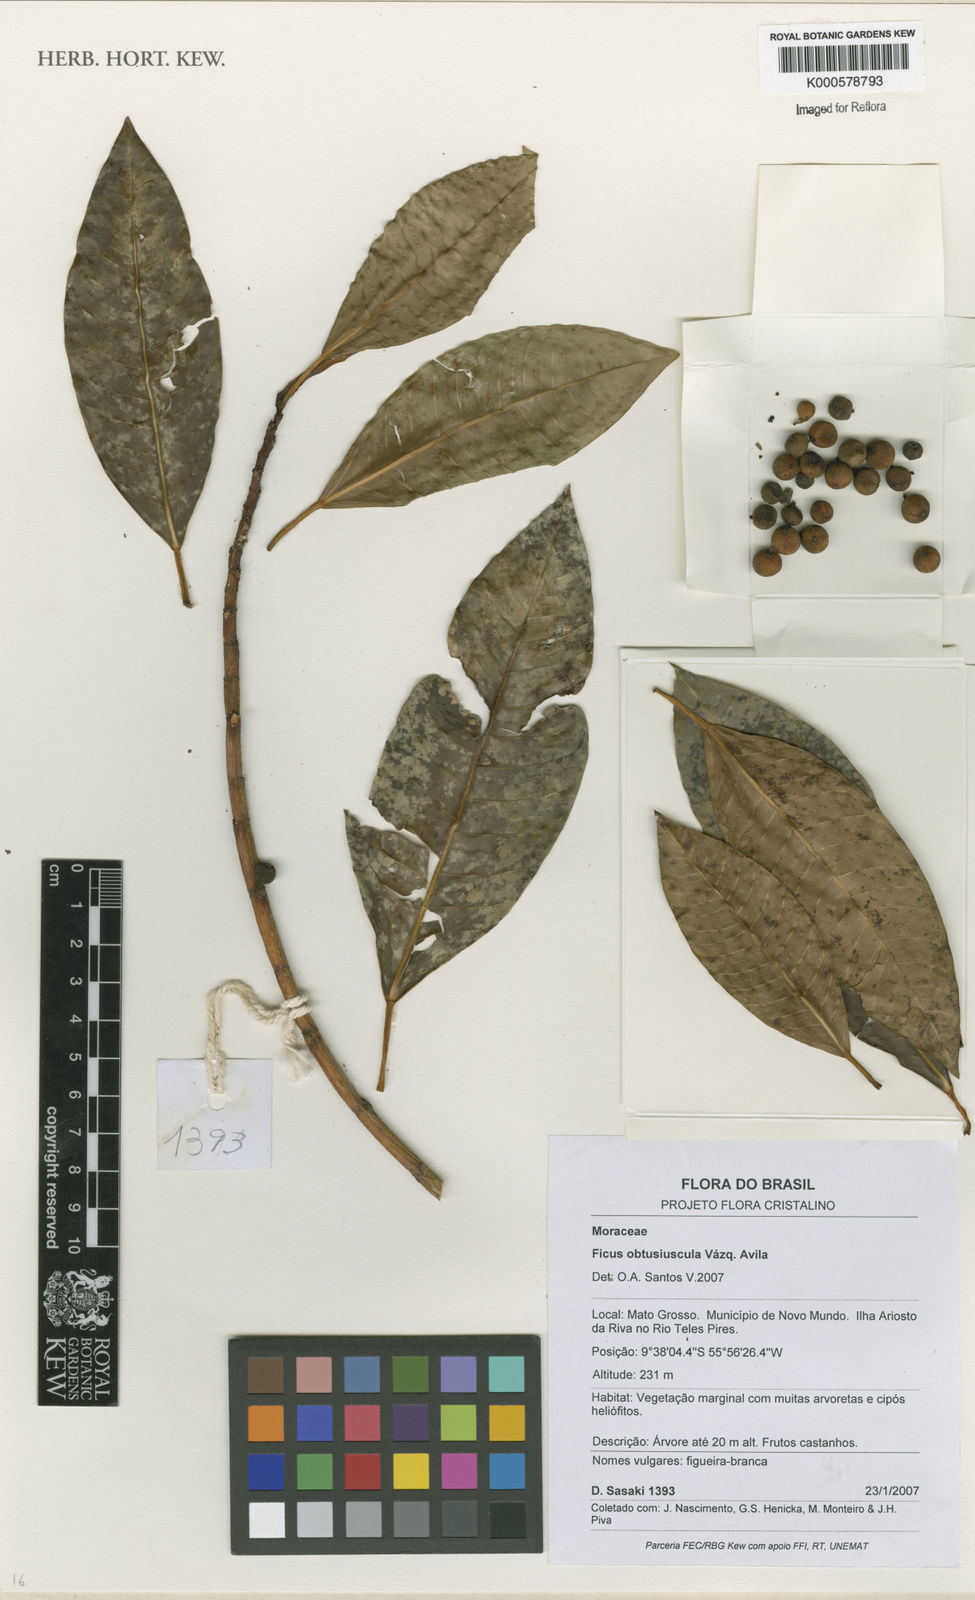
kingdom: Plantae
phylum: Tracheophyta
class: Magnoliopsida
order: Rosales
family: Moraceae
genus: Ficus
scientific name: Ficus
